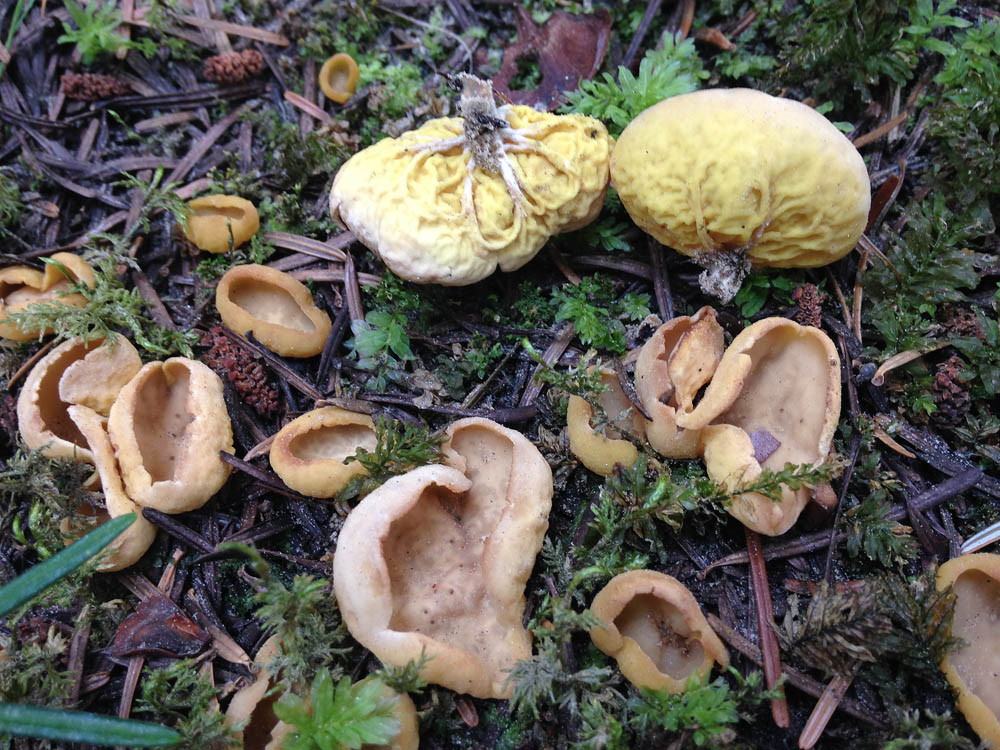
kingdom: Fungi
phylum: Ascomycota
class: Pezizomycetes
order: Pezizales
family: Otideaceae
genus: Otidea
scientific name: Otidea phlebophora
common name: året ørebæger
